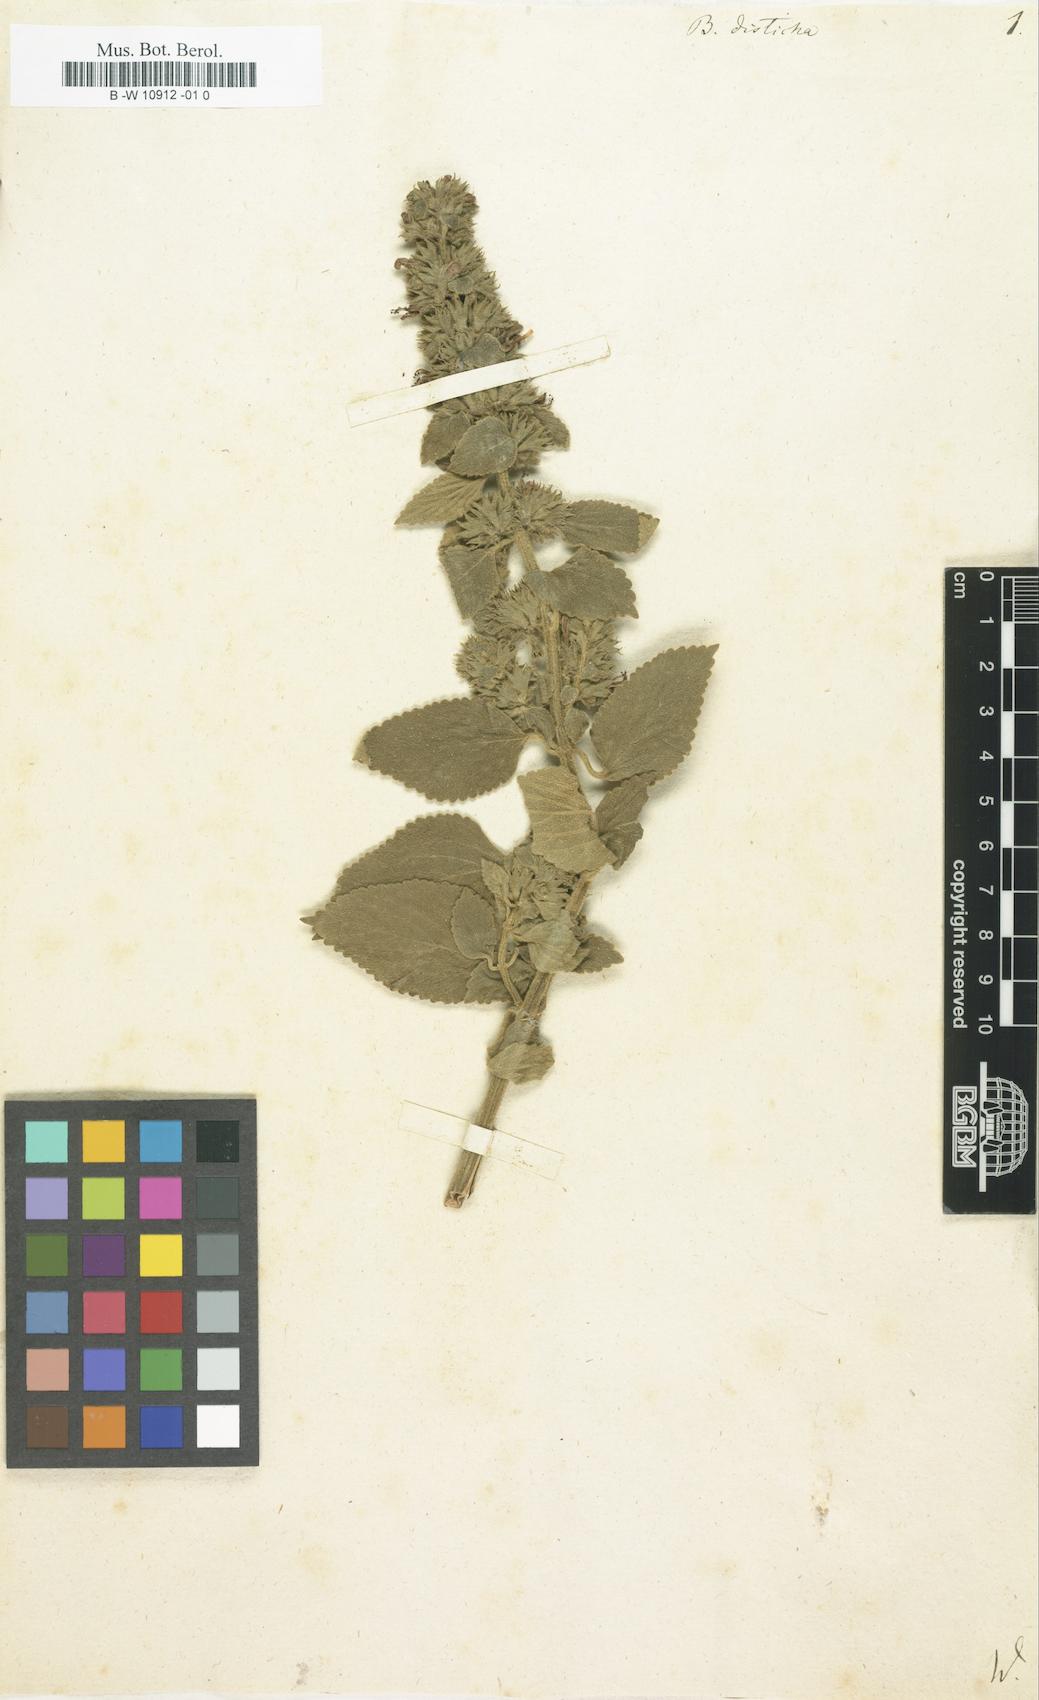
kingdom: Plantae
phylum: Tracheophyta
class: Magnoliopsida
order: Lamiales
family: Lamiaceae
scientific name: Lamiaceae
